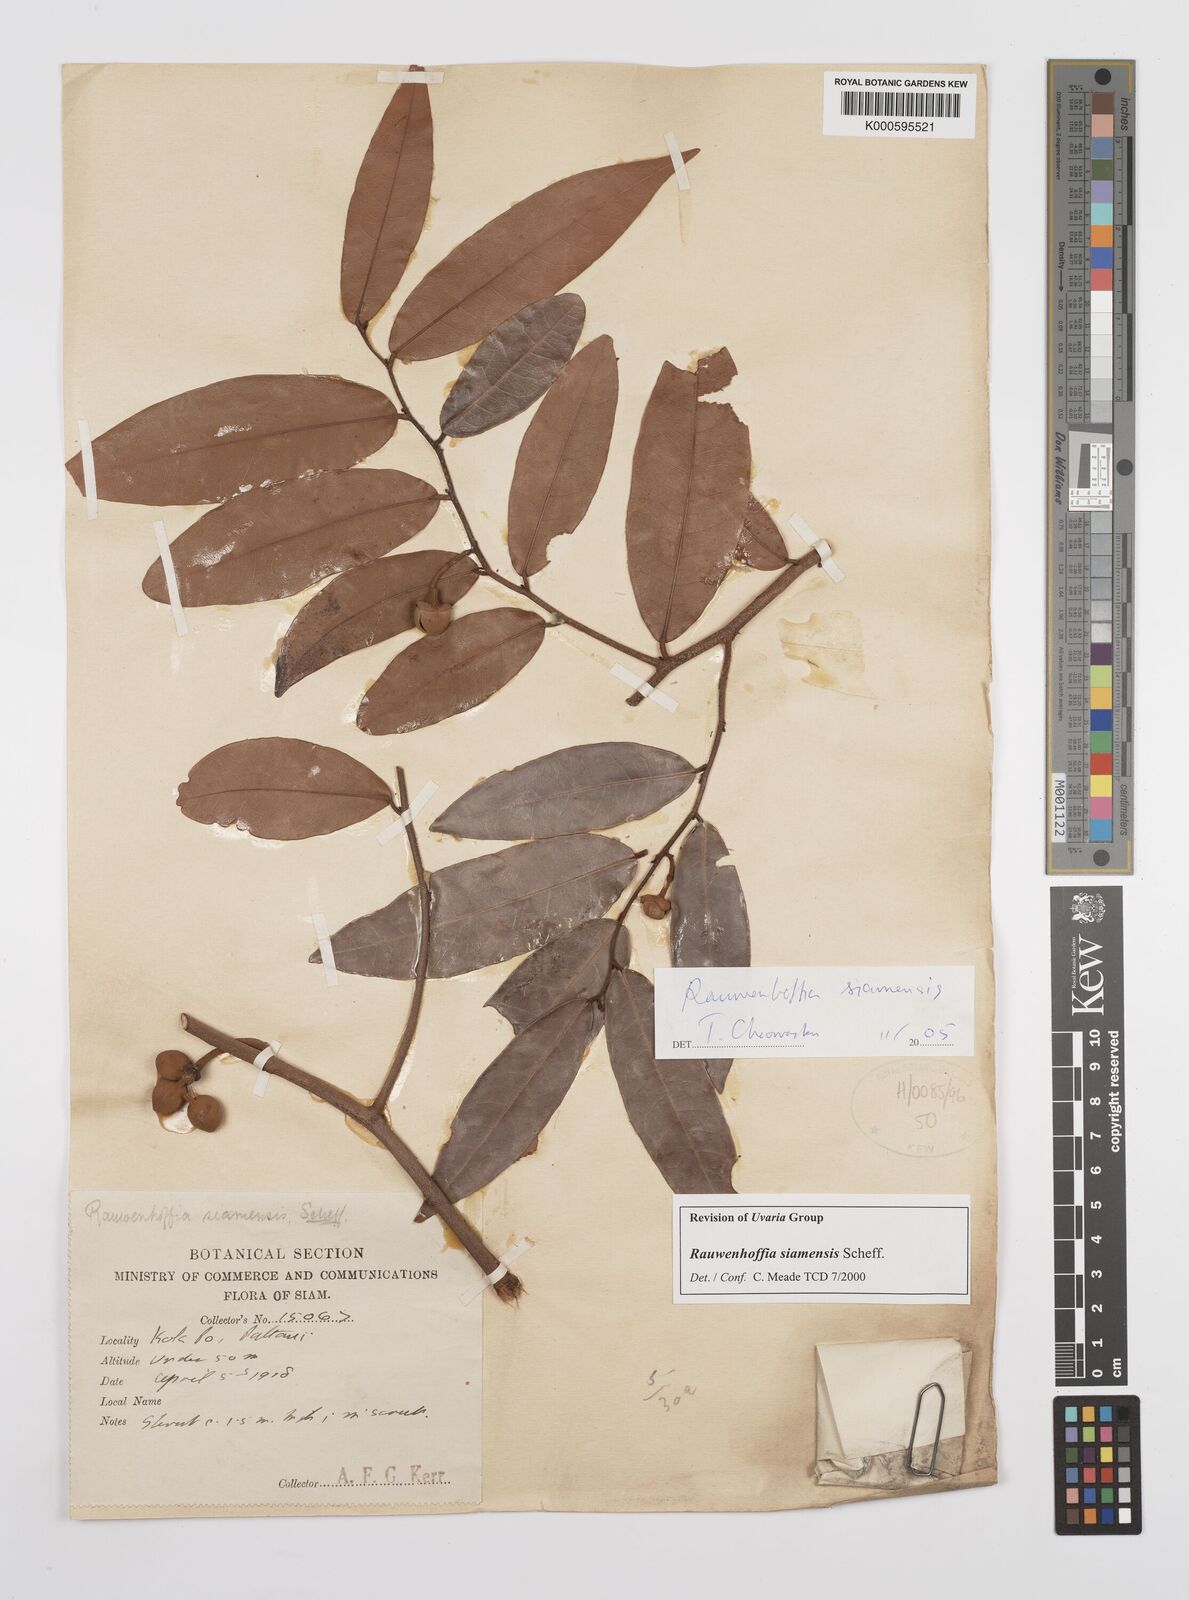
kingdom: Plantae
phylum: Tracheophyta
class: Magnoliopsida
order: Magnoliales
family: Annonaceae
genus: Melodorum
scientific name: Melodorum fruticosum
